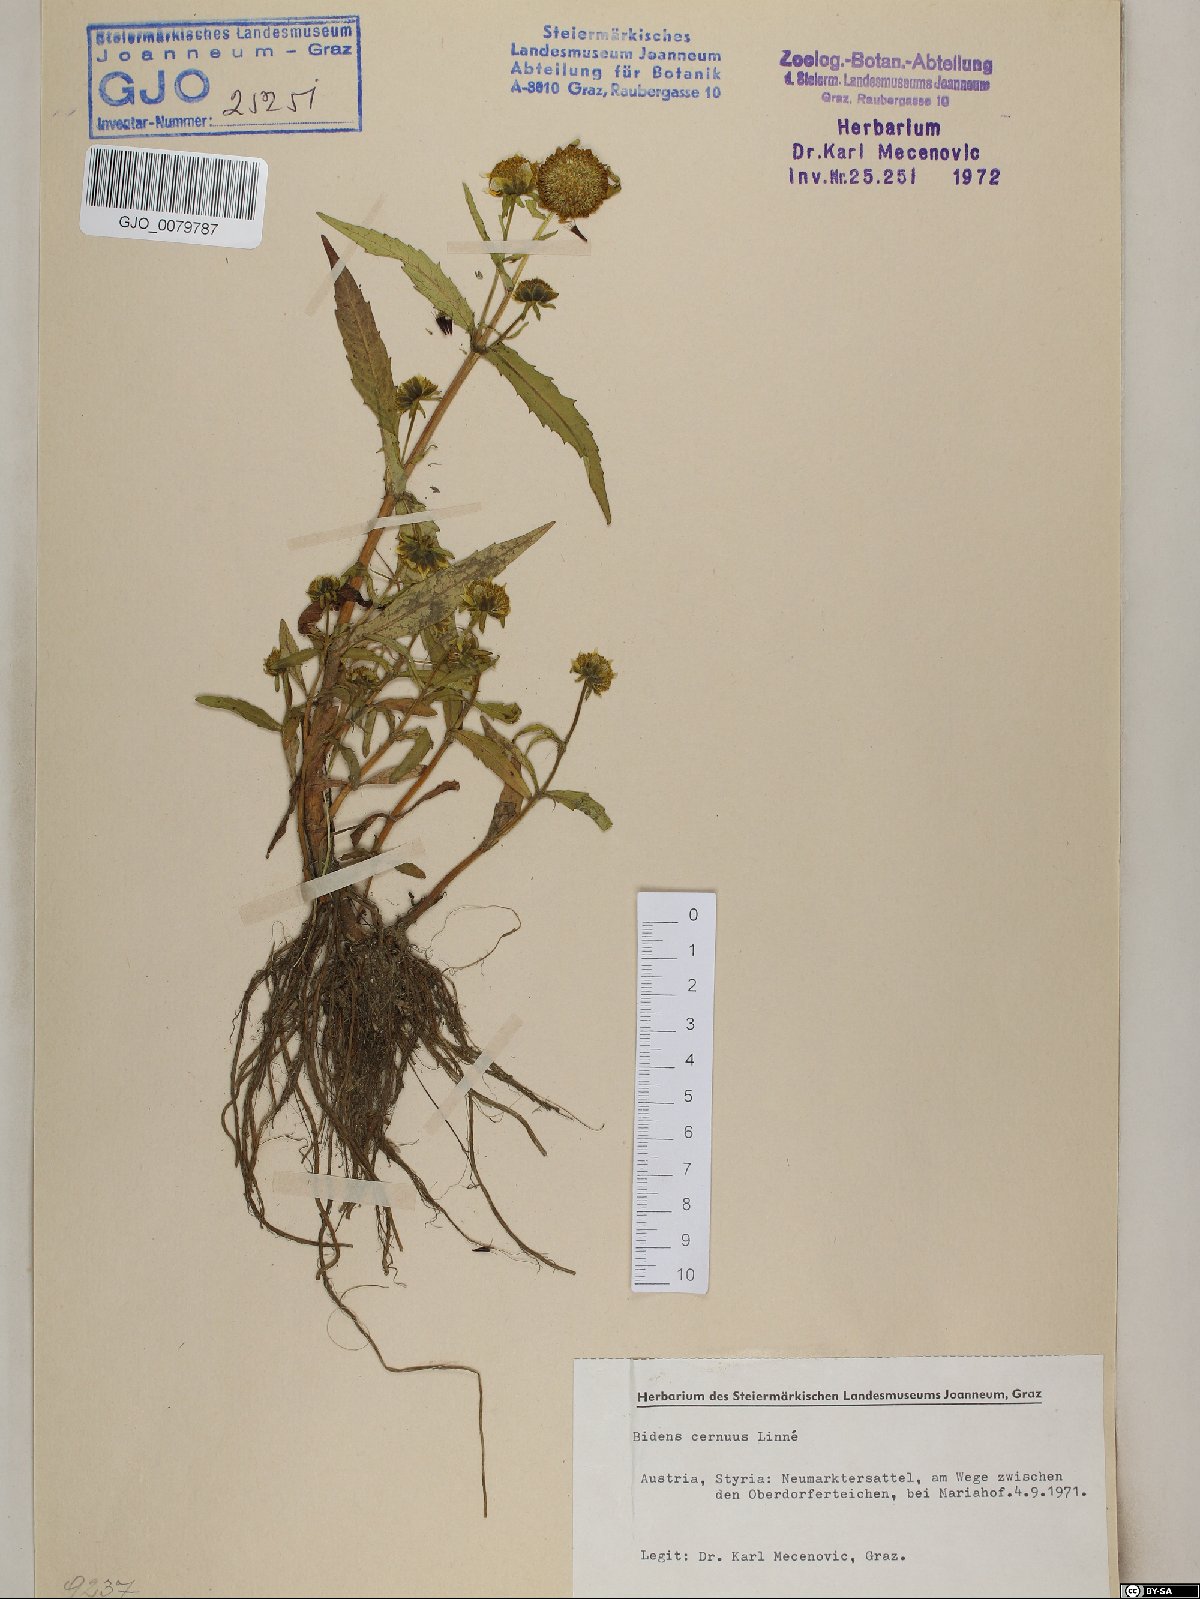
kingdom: Plantae
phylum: Tracheophyta
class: Magnoliopsida
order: Asterales
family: Asteraceae
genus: Bidens
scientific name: Bidens cernua
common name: Nodding bur-marigold
